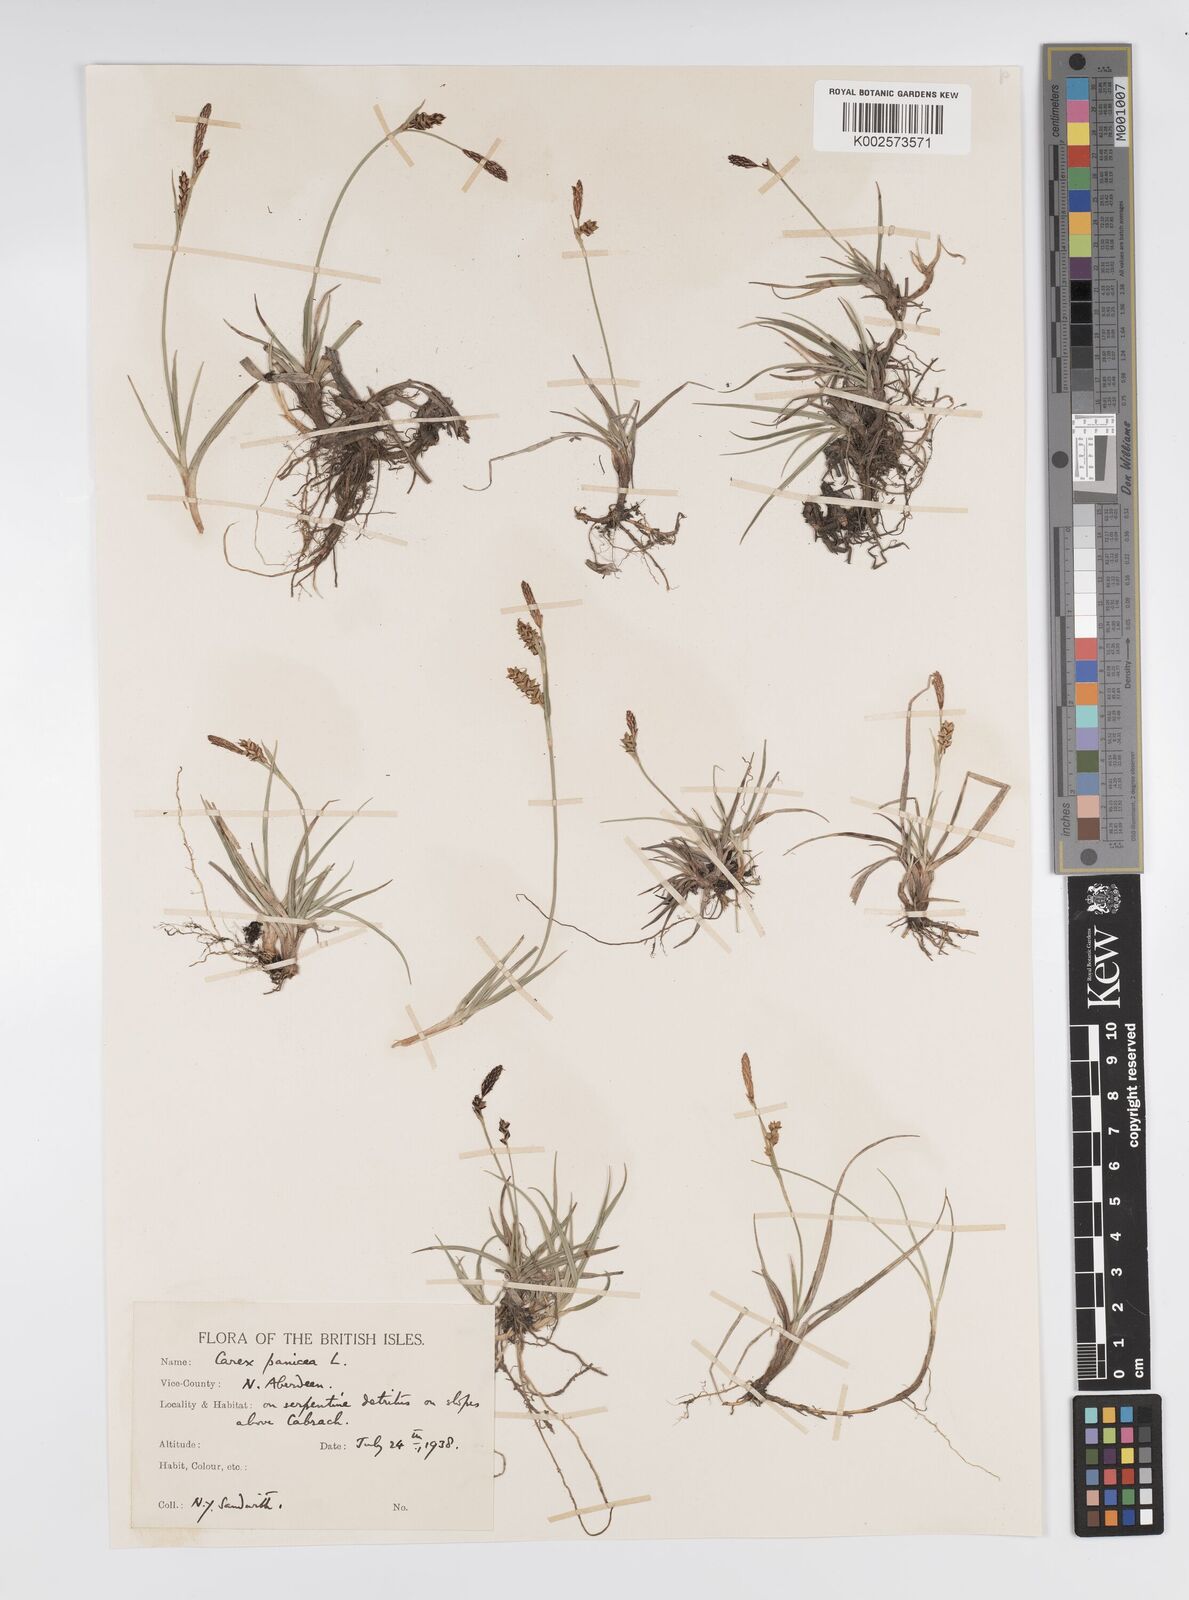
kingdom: Plantae
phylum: Tracheophyta
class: Liliopsida
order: Poales
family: Cyperaceae
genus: Carex
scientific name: Carex panicea
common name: Carnation sedge
